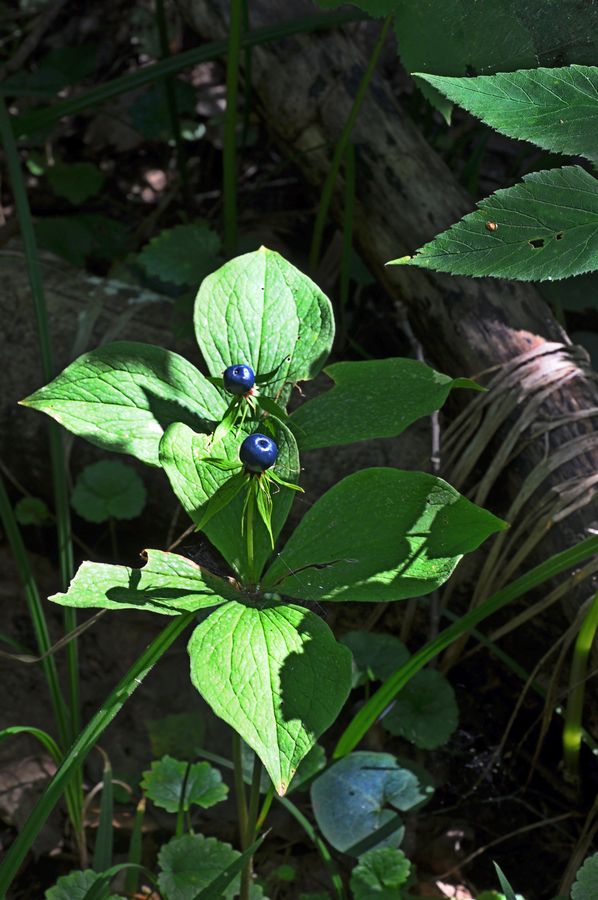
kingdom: Plantae
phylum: Tracheophyta
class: Liliopsida
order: Liliales
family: Melanthiaceae
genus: Paris
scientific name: Paris quadrifolia
